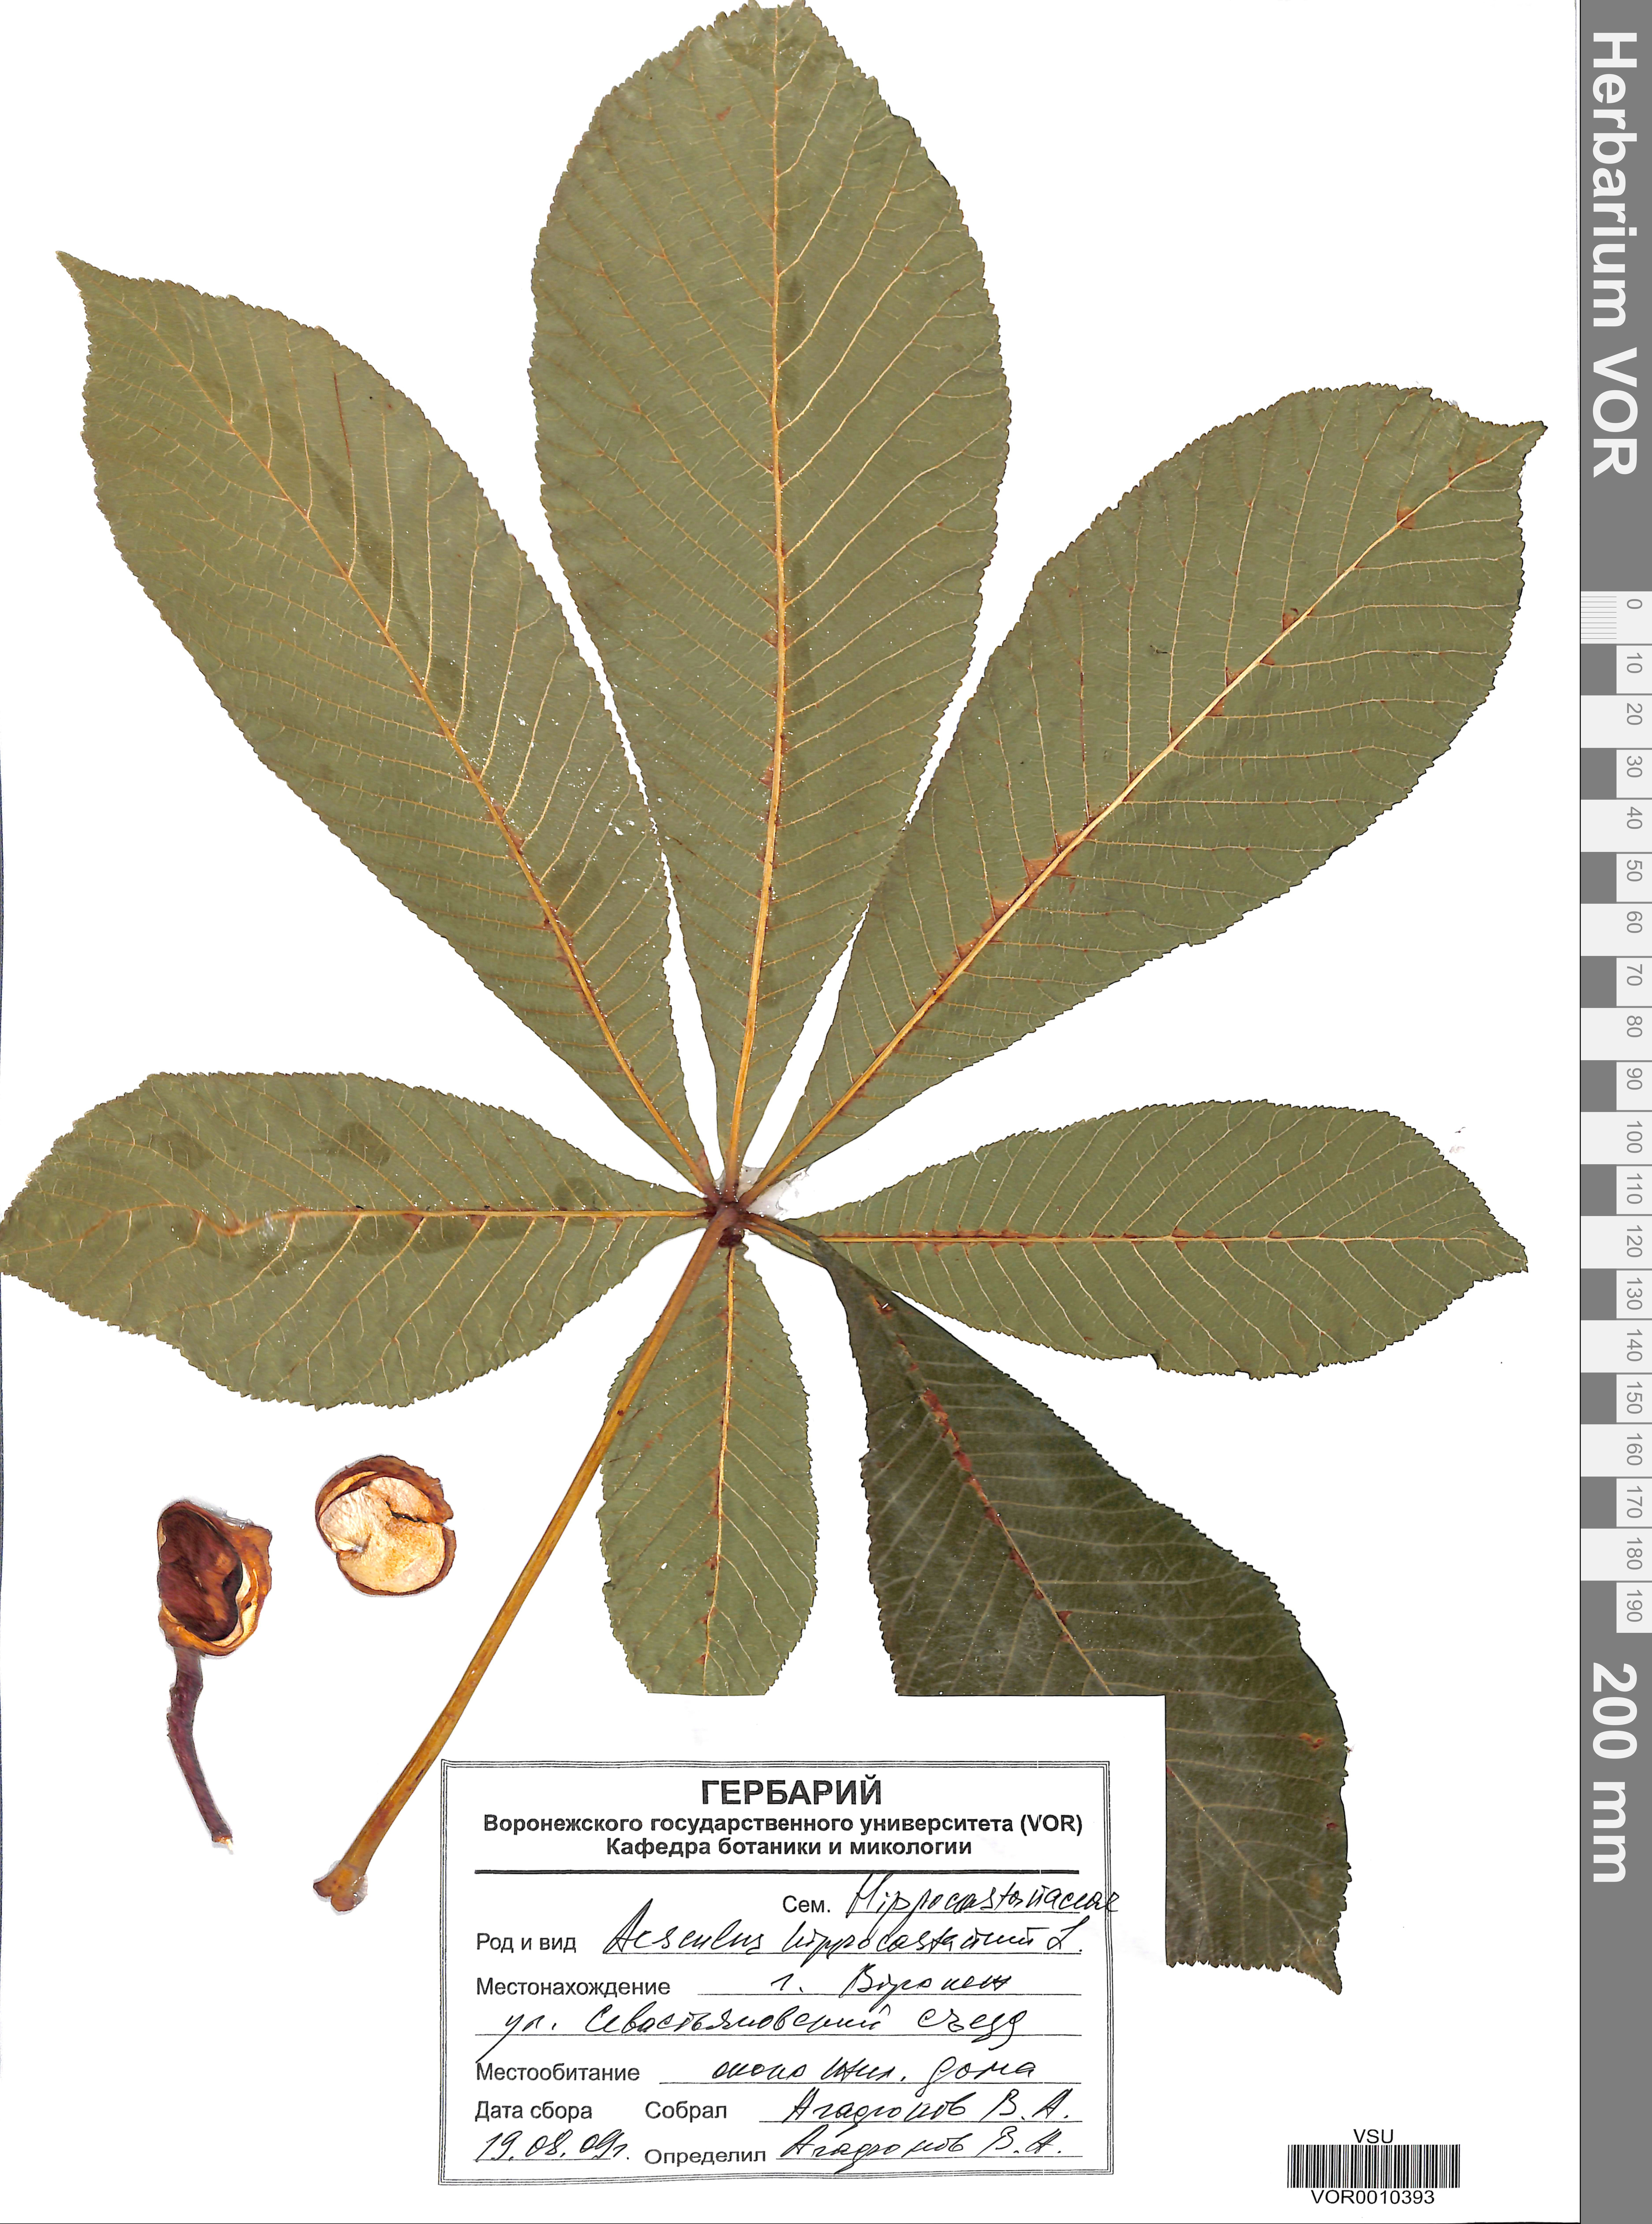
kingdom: Plantae
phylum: Tracheophyta
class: Magnoliopsida
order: Sapindales
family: Sapindaceae
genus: Aesculus
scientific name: Aesculus hippocastanum
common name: Horse-chestnut
